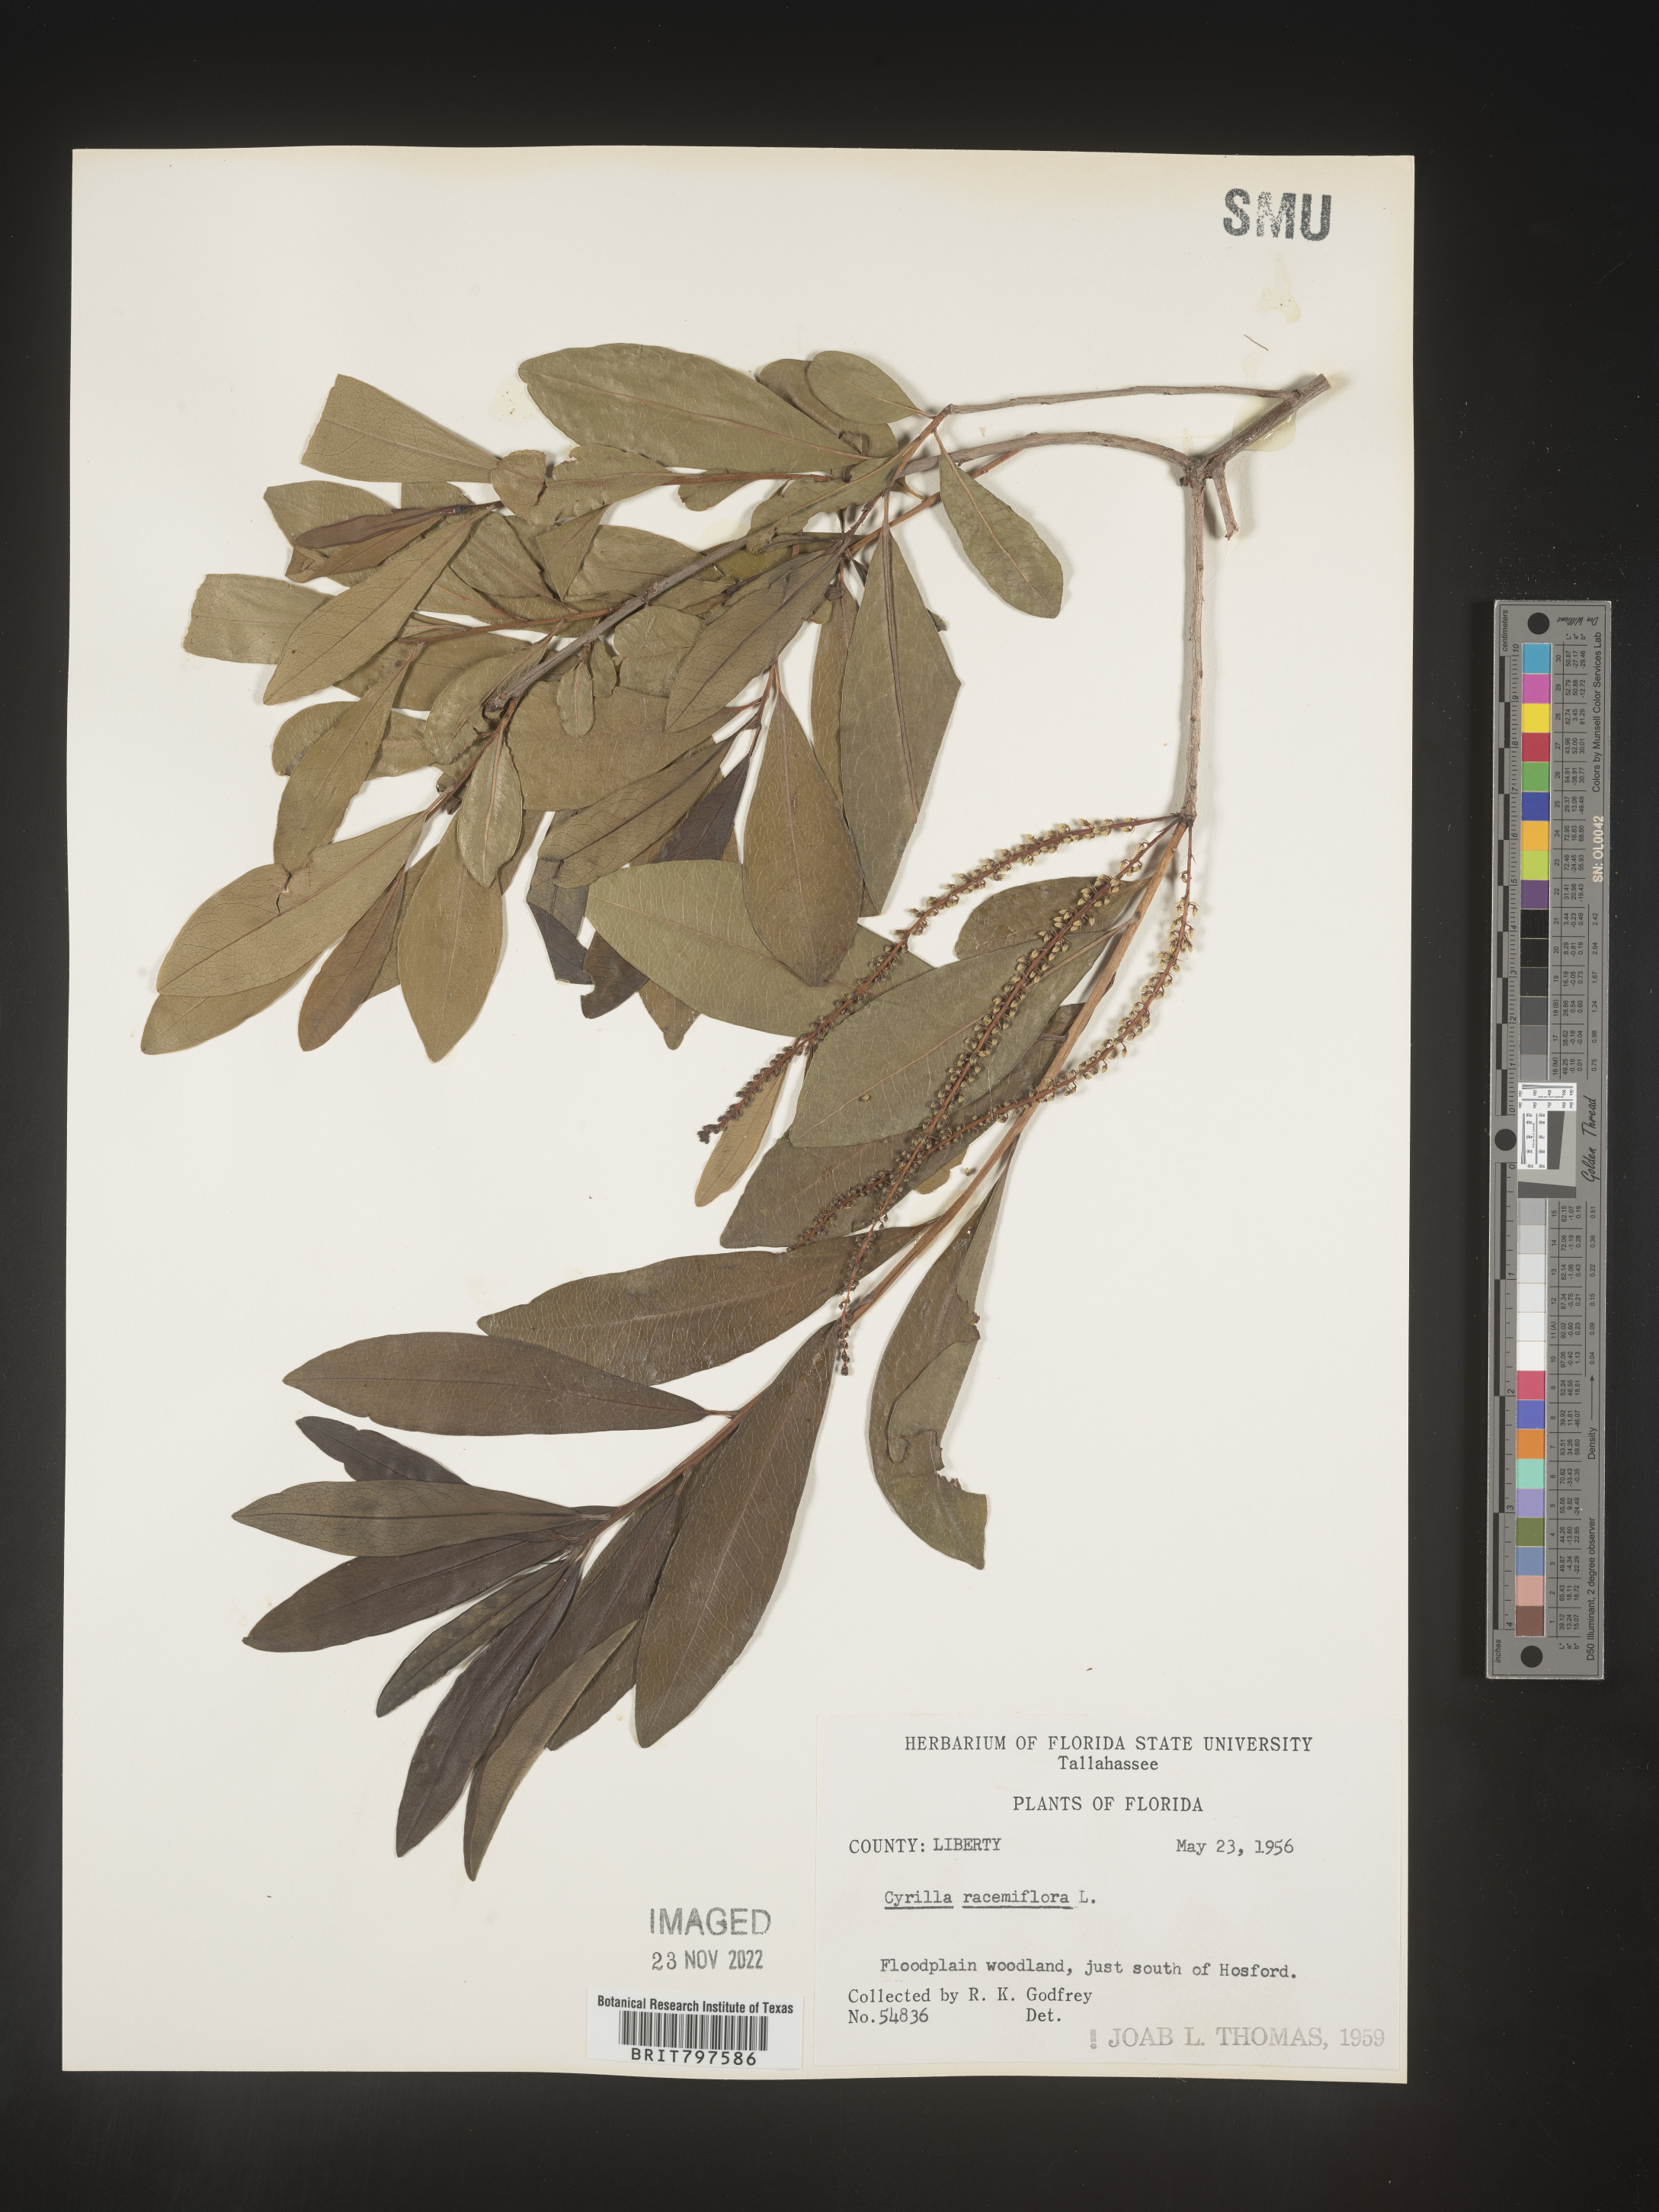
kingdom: Plantae
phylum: Tracheophyta
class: Magnoliopsida
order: Ericales
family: Cyrillaceae
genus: Cyrilla
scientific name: Cyrilla racemiflora
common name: Black titi
